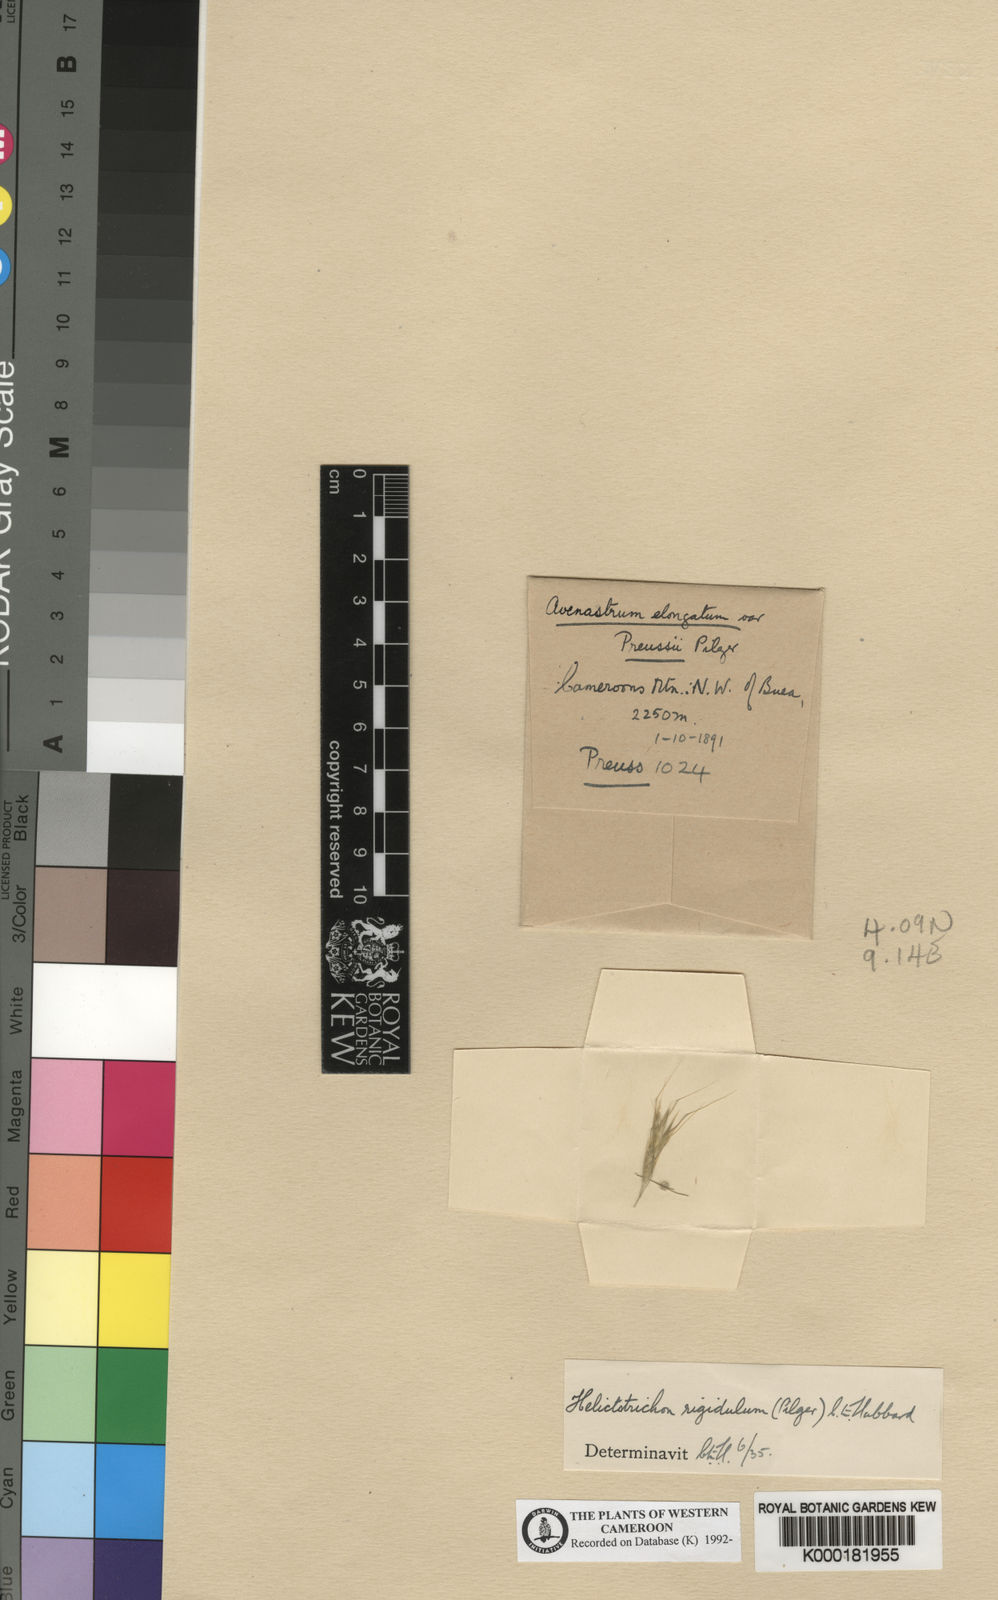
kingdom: Plantae
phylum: Tracheophyta
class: Liliopsida
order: Poales
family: Poaceae
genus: Trisetopsis
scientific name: Trisetopsis elongata
